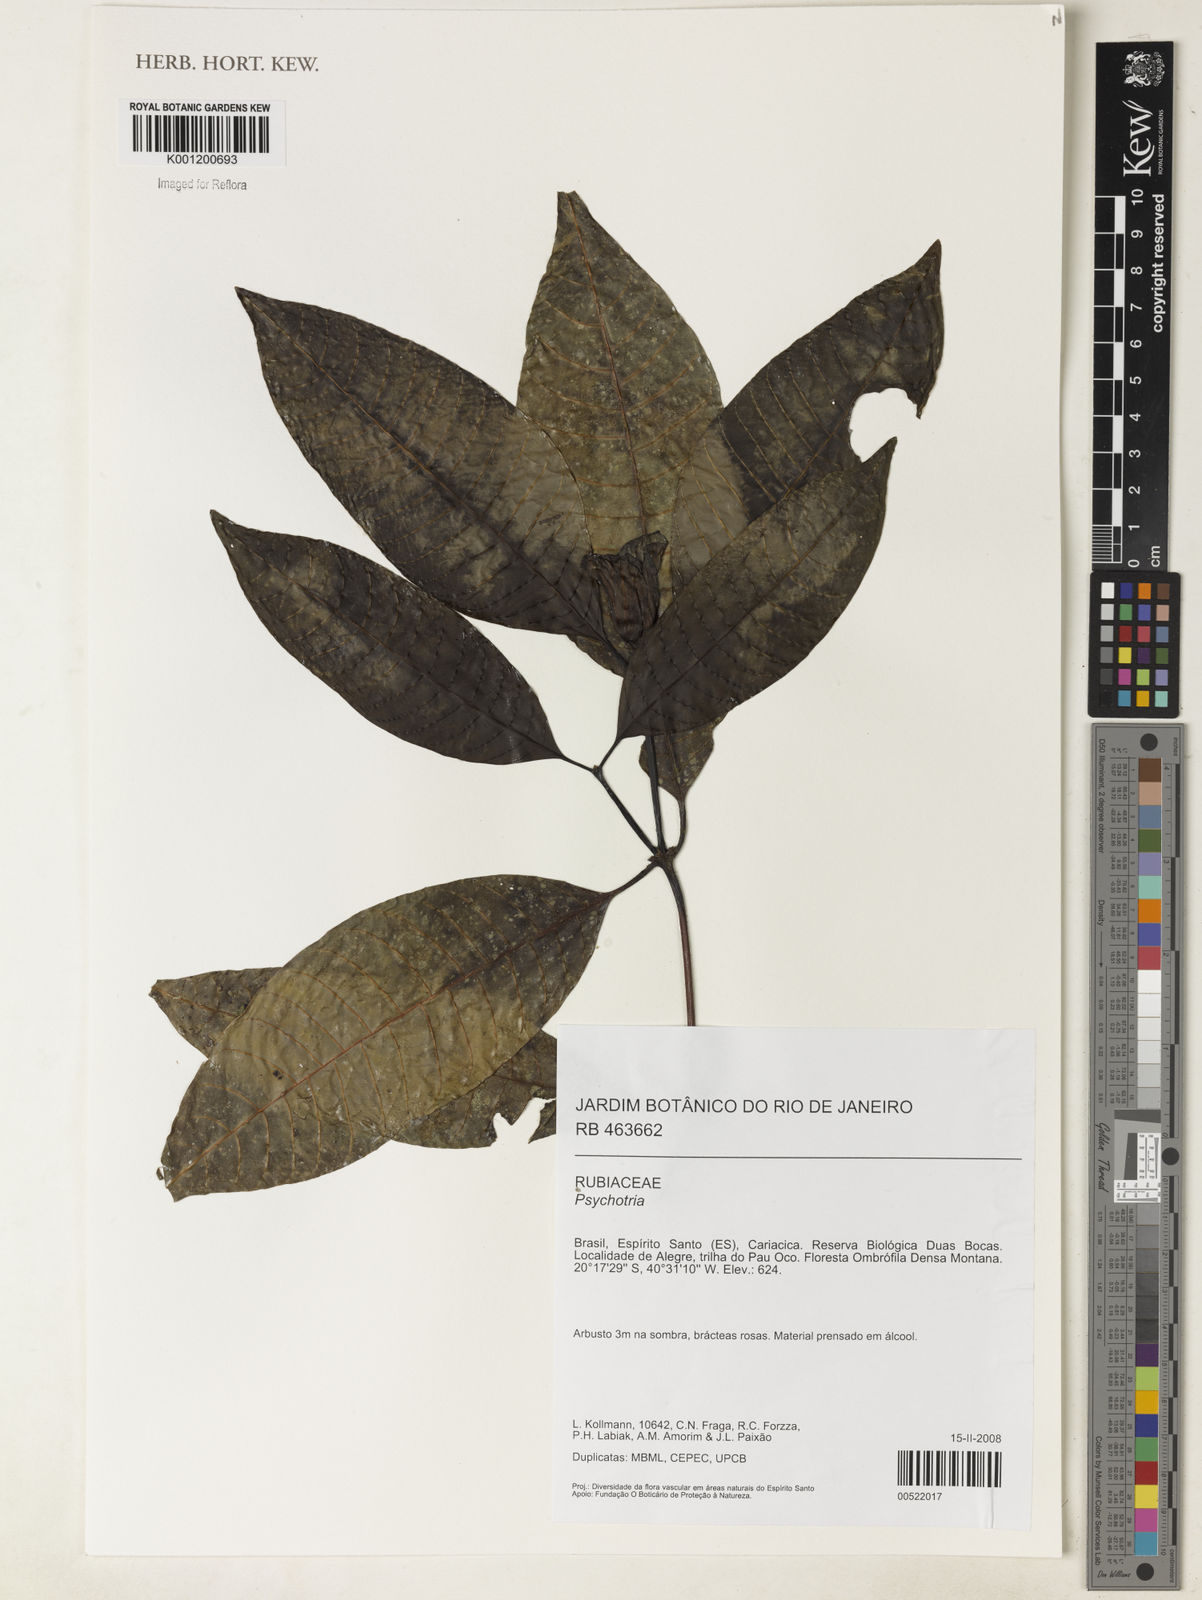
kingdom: Plantae
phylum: Tracheophyta
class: Magnoliopsida
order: Gentianales
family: Rubiaceae
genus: Psychotria
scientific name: Psychotria
